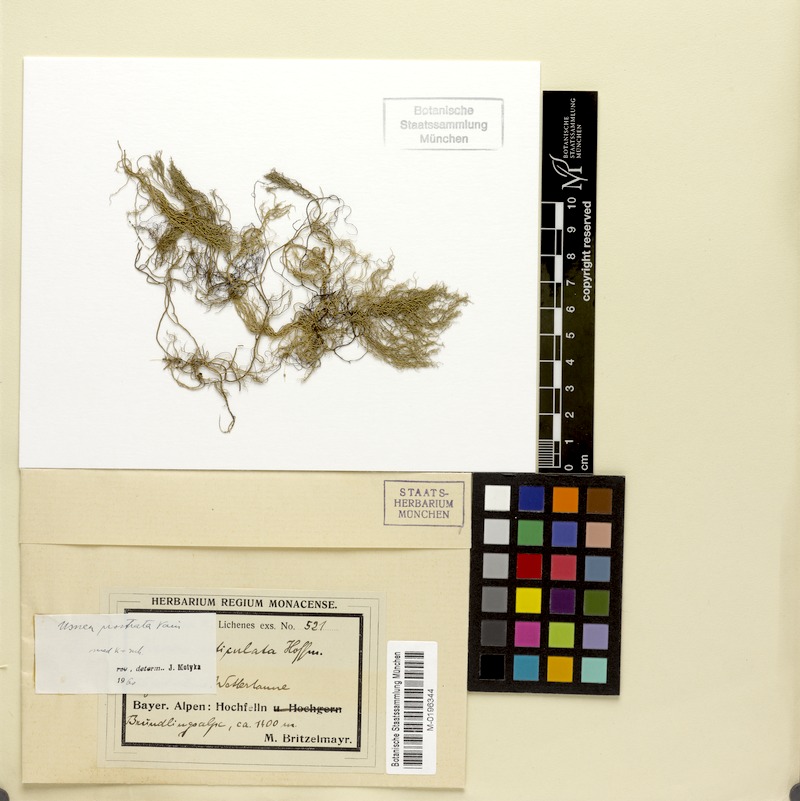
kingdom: Fungi
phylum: Ascomycota
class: Lecanoromycetes
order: Lecanorales
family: Parmeliaceae
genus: Usnea
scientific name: Usnea prostrata
